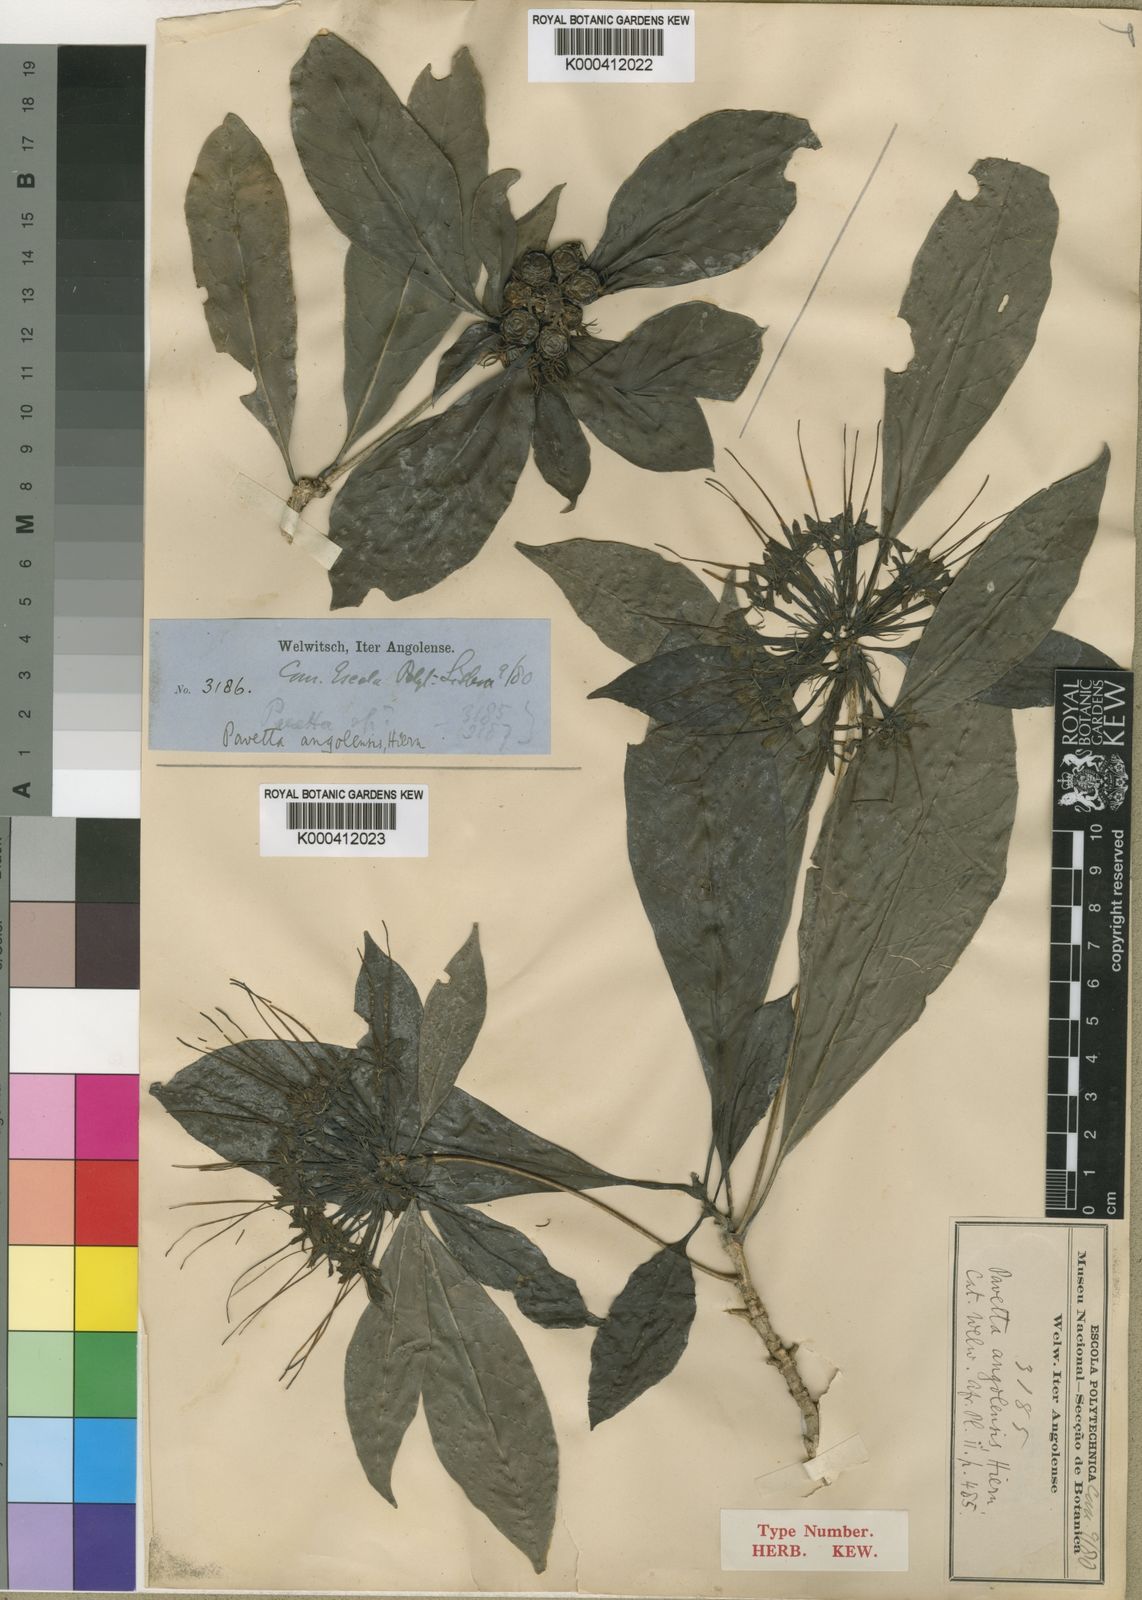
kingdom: Plantae
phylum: Tracheophyta
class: Magnoliopsida
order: Gentianales
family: Rubiaceae
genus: Pavetta
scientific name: Pavetta angolensis
